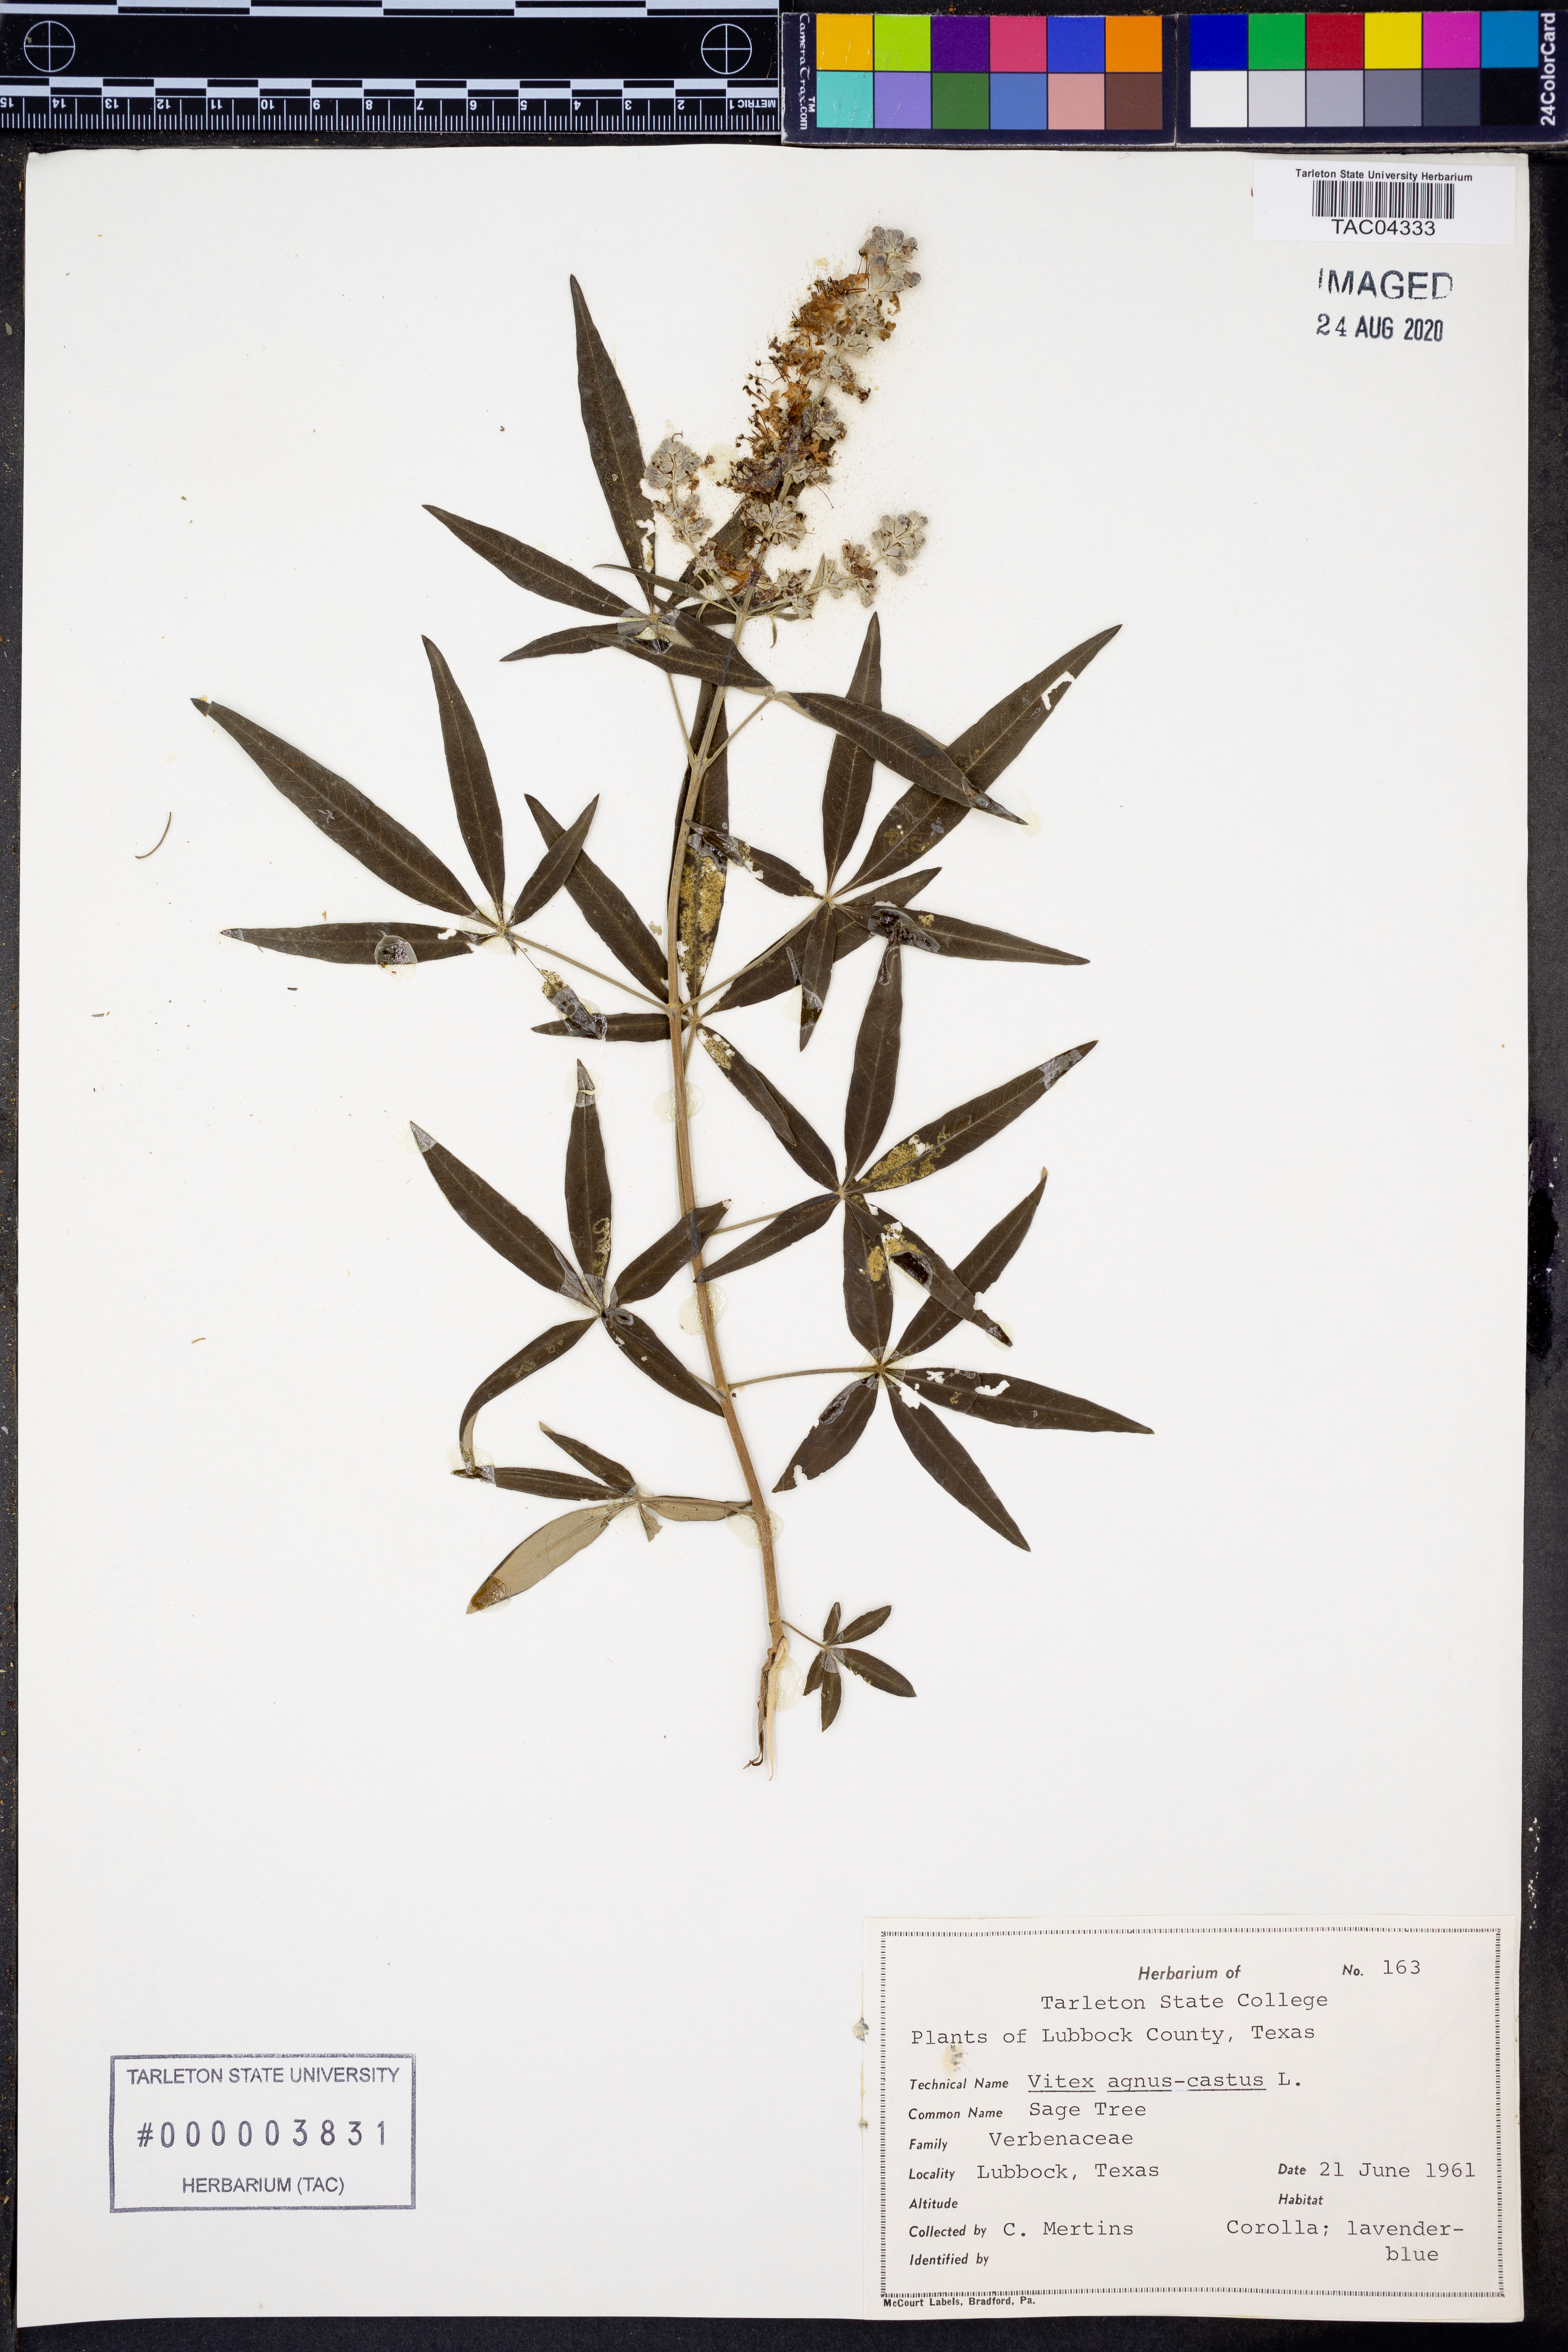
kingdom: Plantae
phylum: Tracheophyta
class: Magnoliopsida
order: Lamiales
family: Lamiaceae
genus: Vitex
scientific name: Vitex agnus-castus
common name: Chasteberry
